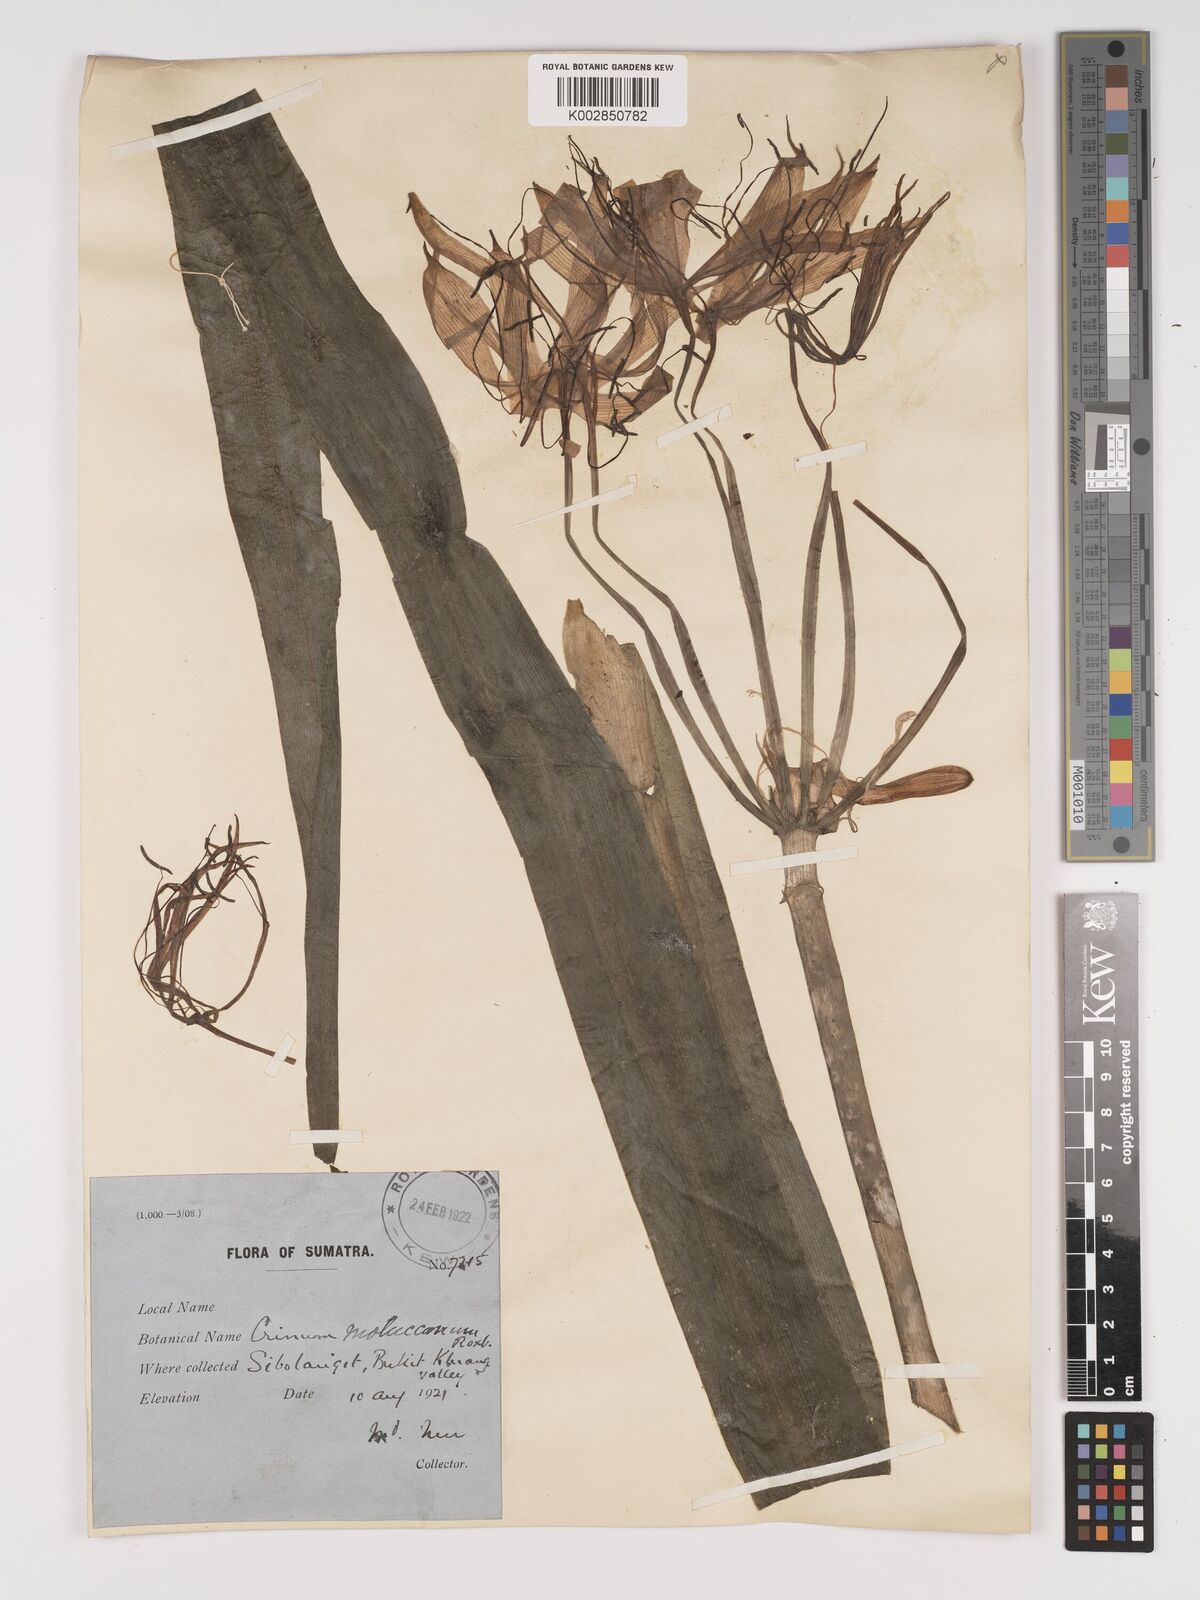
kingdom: Plantae
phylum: Tracheophyta
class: Liliopsida
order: Asparagales
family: Amaryllidaceae
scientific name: Amaryllidaceae
